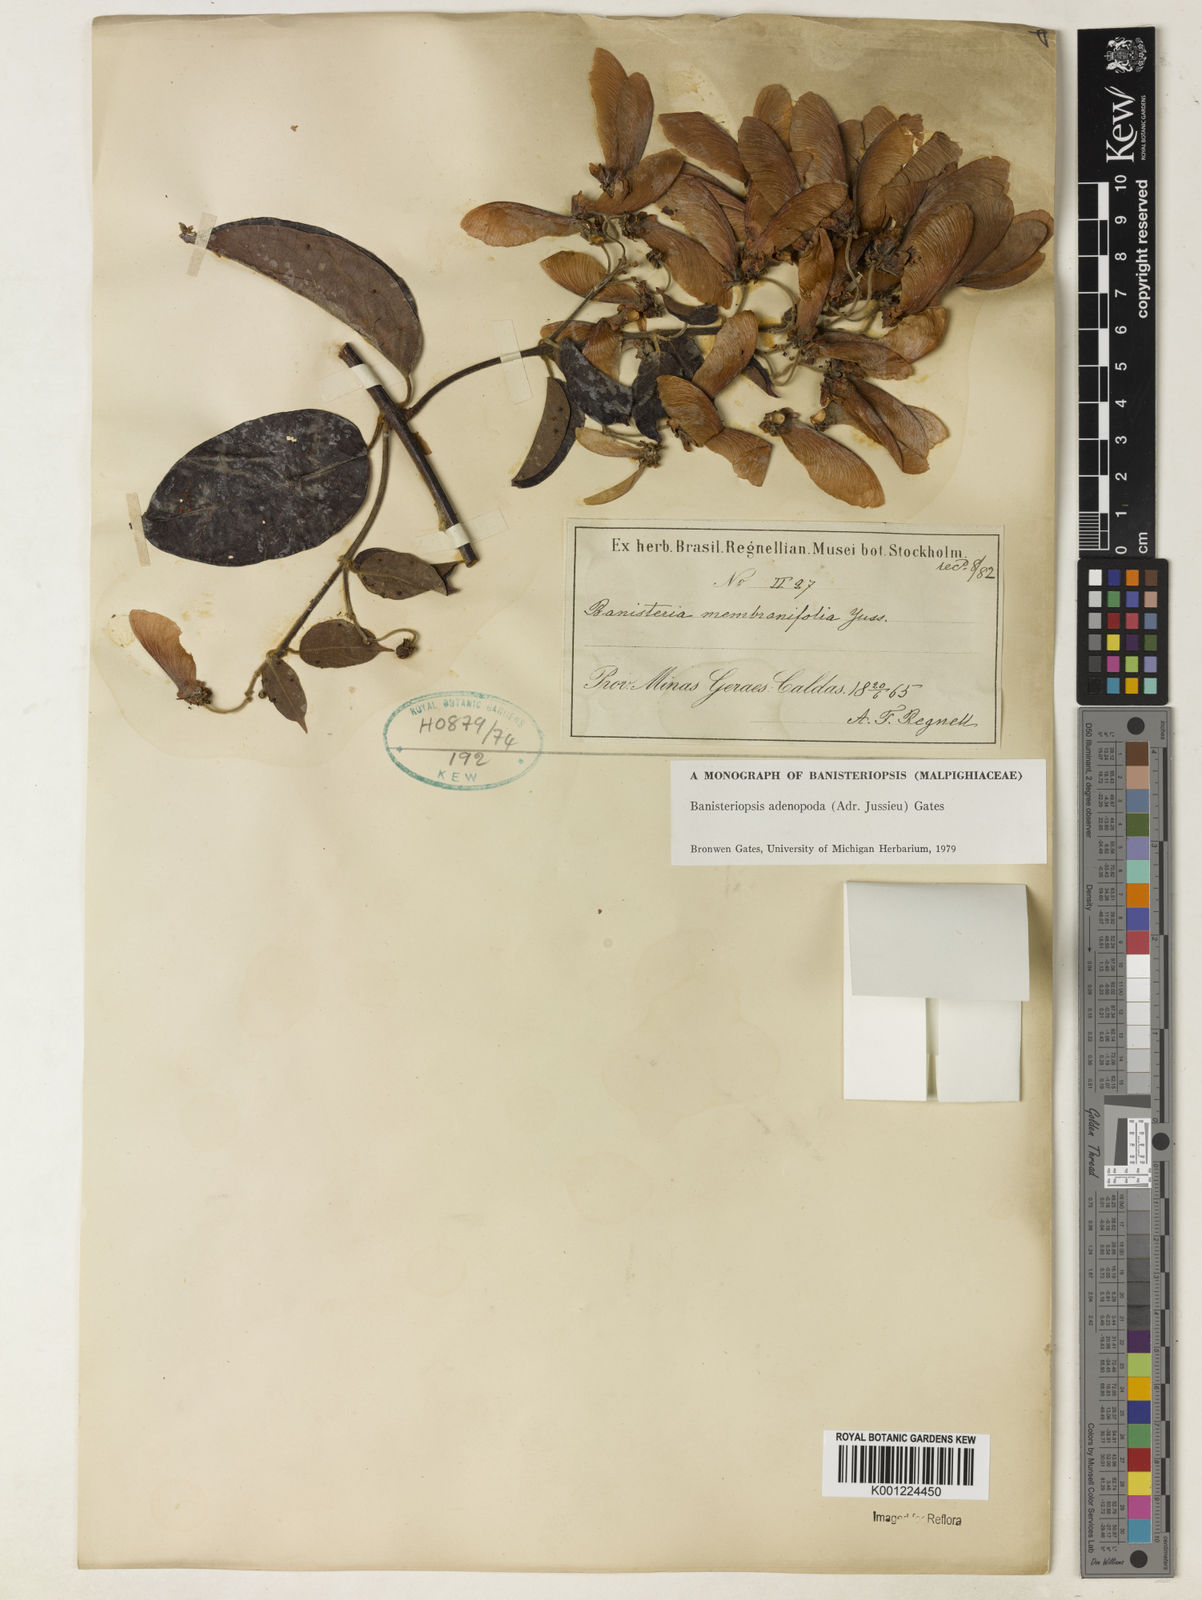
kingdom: Plantae
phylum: Tracheophyta
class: Magnoliopsida
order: Malpighiales
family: Malpighiaceae
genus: Banisteriopsis
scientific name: Banisteriopsis adenopoda
